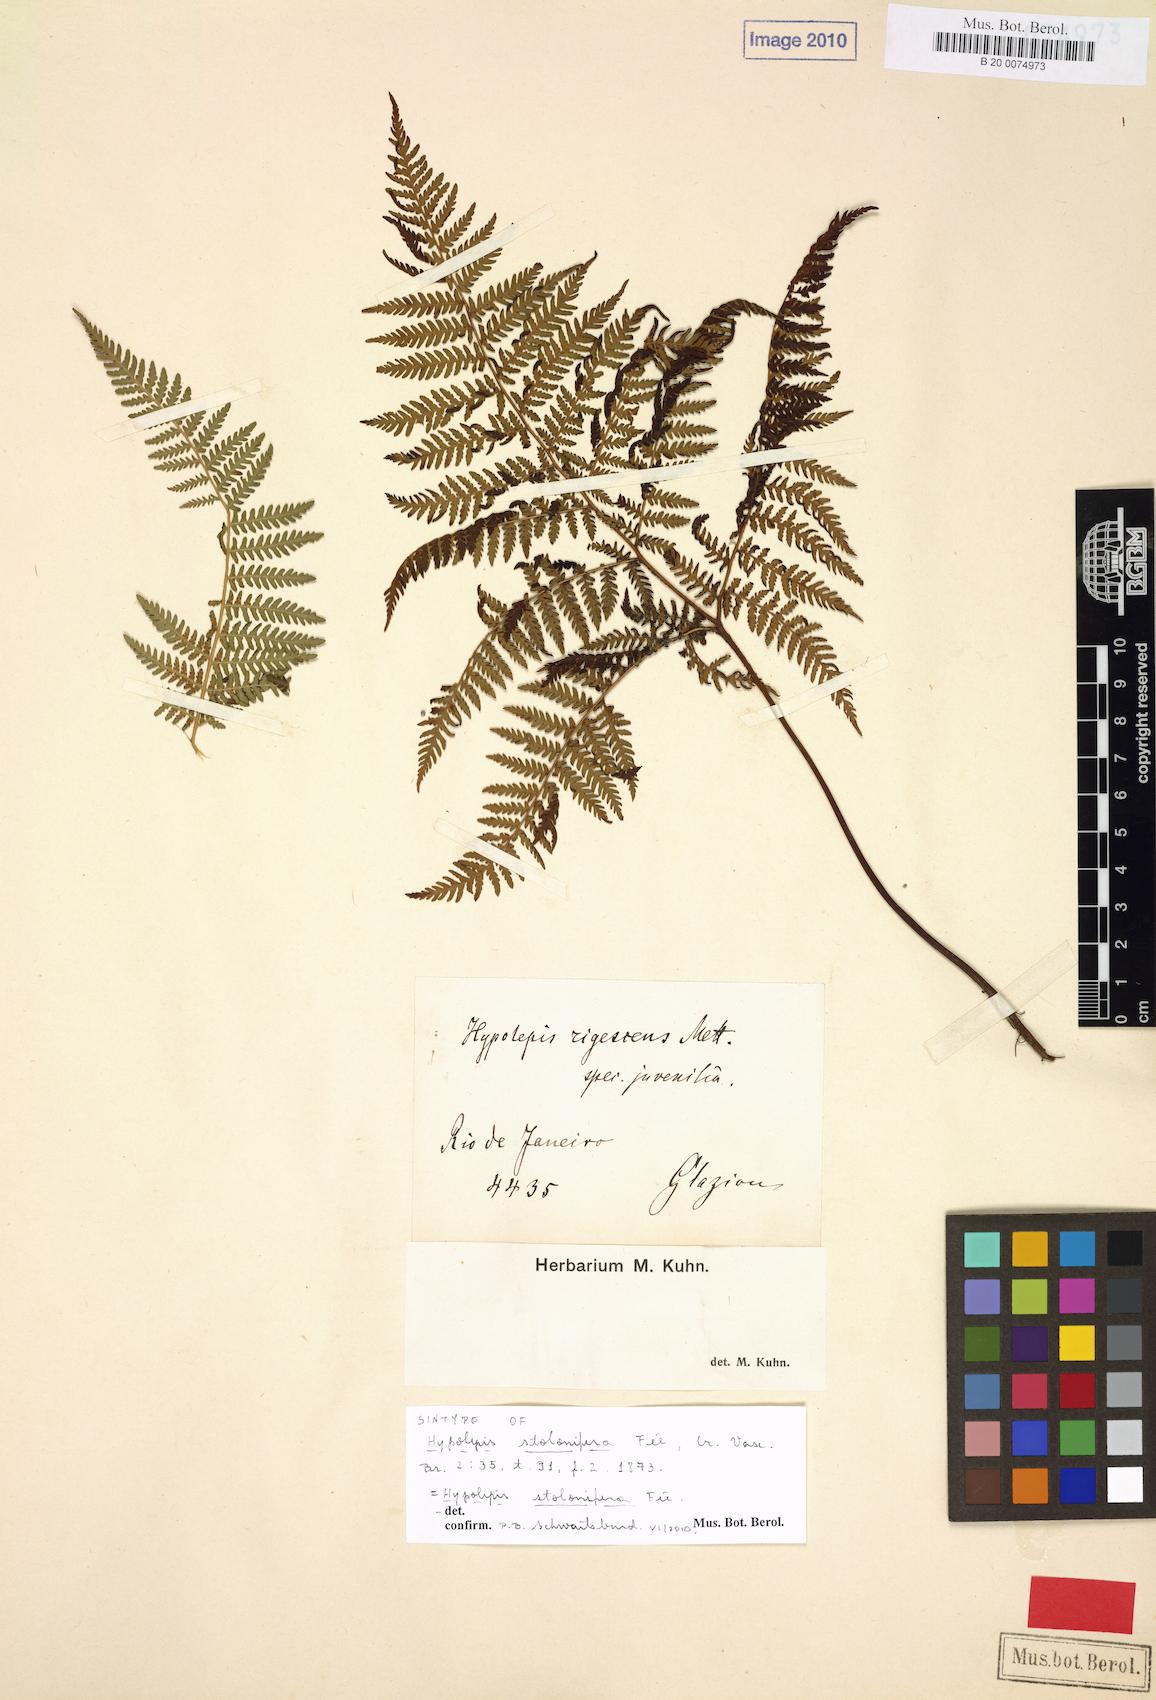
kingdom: Plantae
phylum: Tracheophyta
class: Polypodiopsida
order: Polypodiales
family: Dennstaedtiaceae
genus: Hypolepis
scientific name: Hypolepis stolonifera
